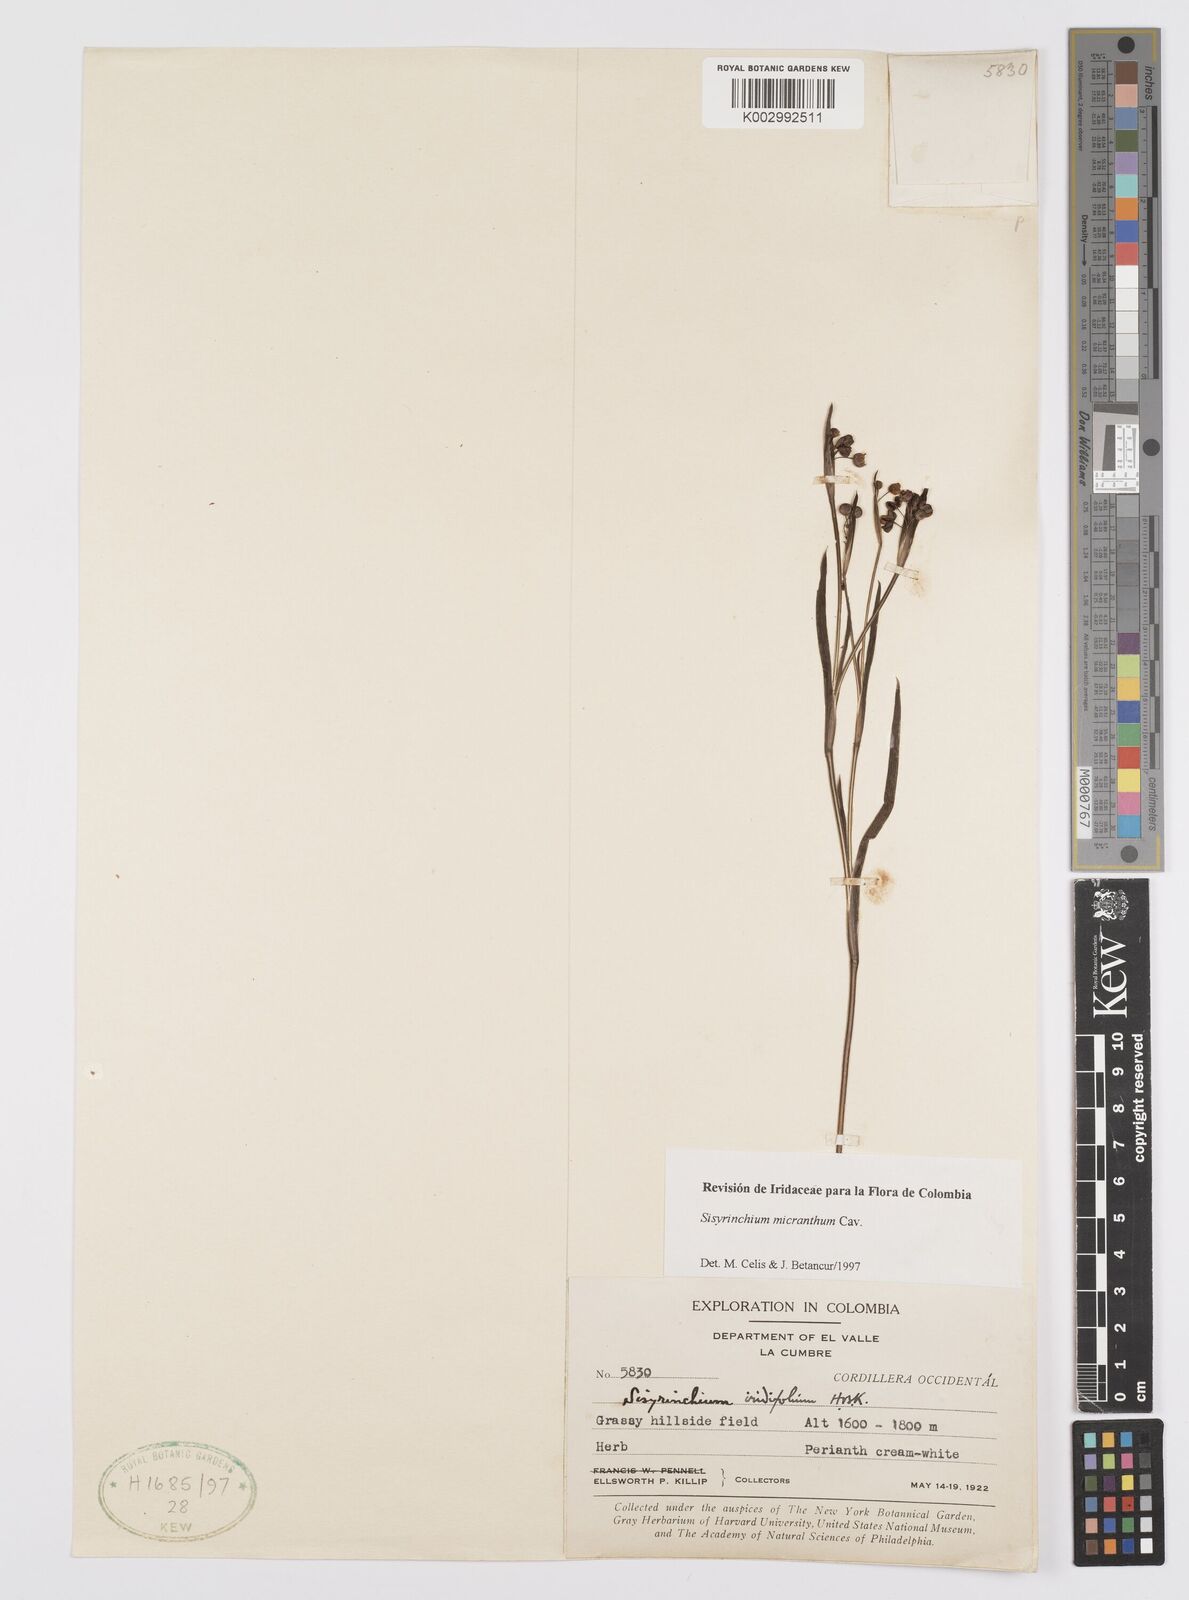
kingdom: Plantae
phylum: Tracheophyta
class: Liliopsida
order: Asparagales
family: Iridaceae
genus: Sisyrinchium
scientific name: Sisyrinchium micranthum
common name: Bermuda pigroot
